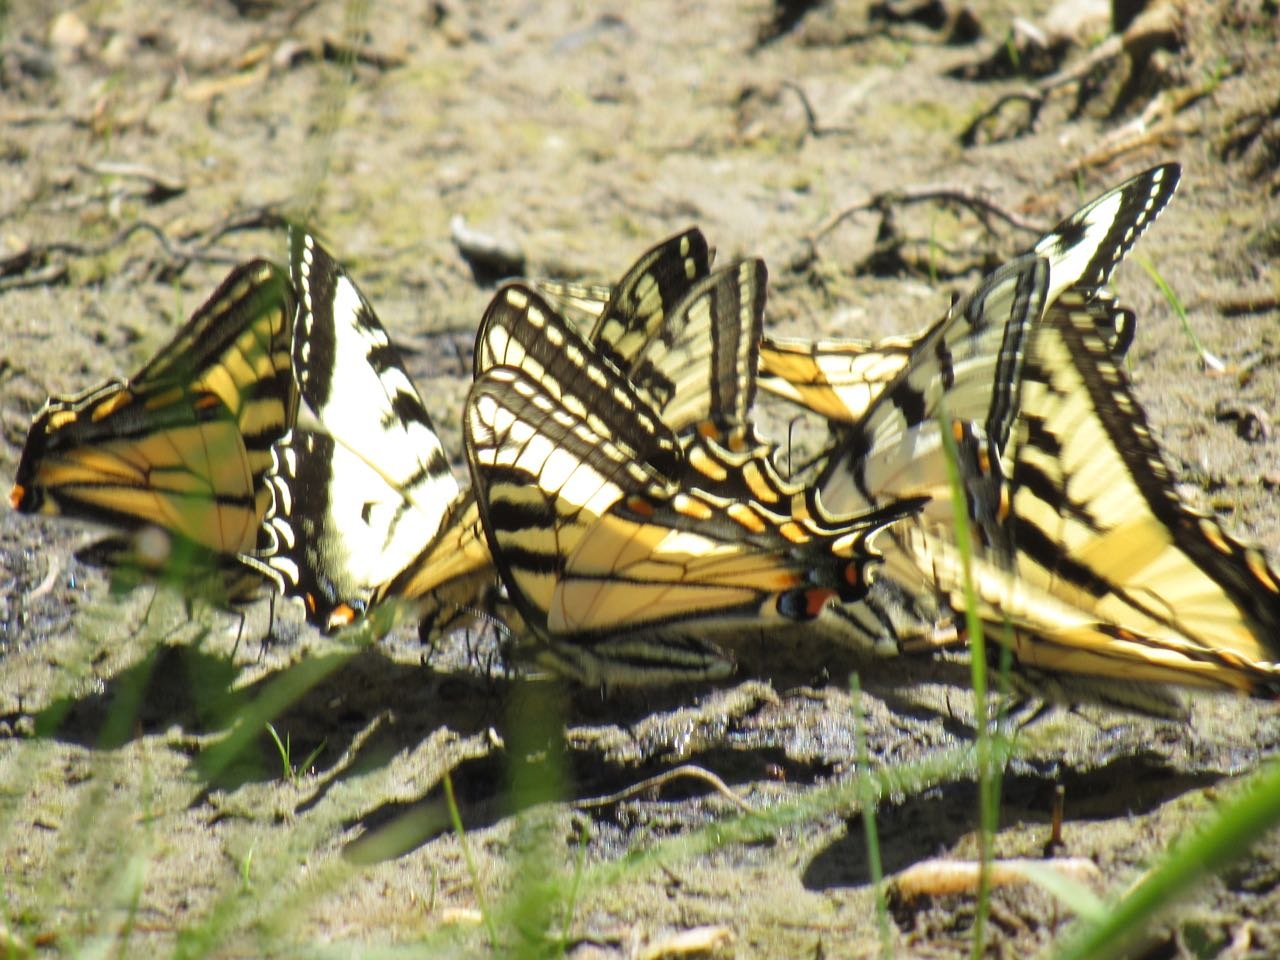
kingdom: Animalia
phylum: Arthropoda
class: Insecta
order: Lepidoptera
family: Papilionidae
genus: Pterourus
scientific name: Pterourus canadensis
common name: Canadian Tiger Swallowtail
